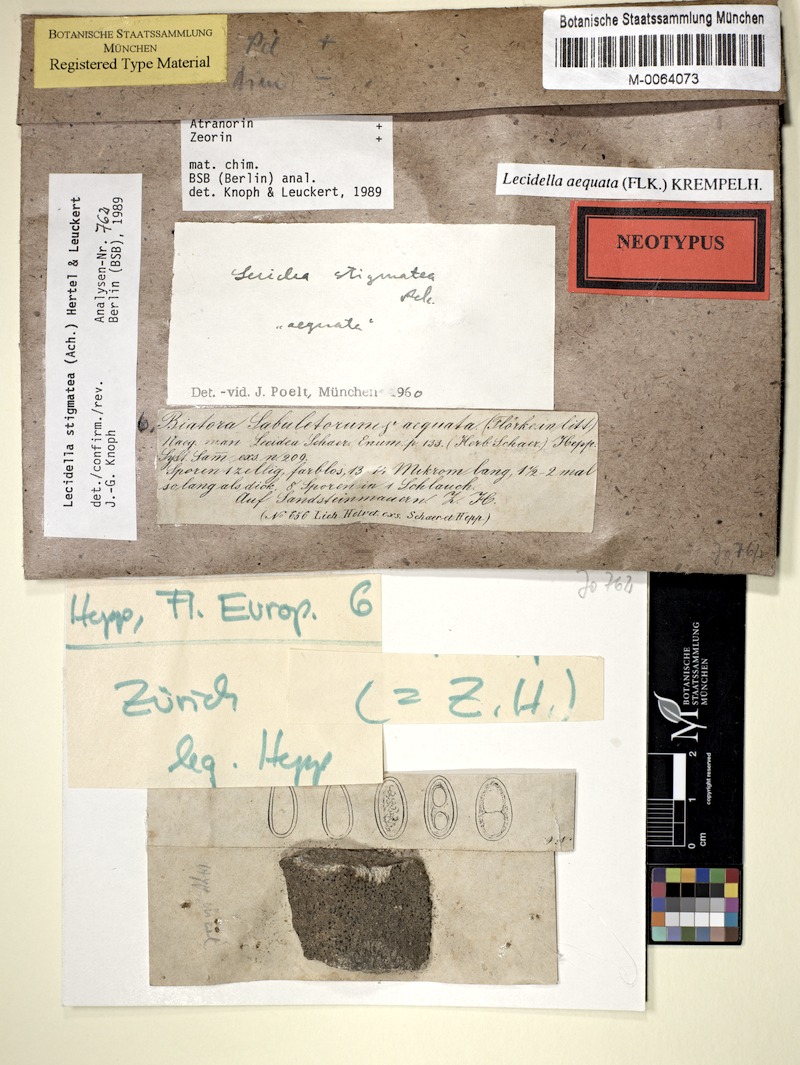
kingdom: Fungi
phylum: Ascomycota
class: Lecanoromycetes
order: Lecanorales
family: Lecanoraceae
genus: Lecidella
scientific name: Lecidella stigmatea
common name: Limestone disc lichen
